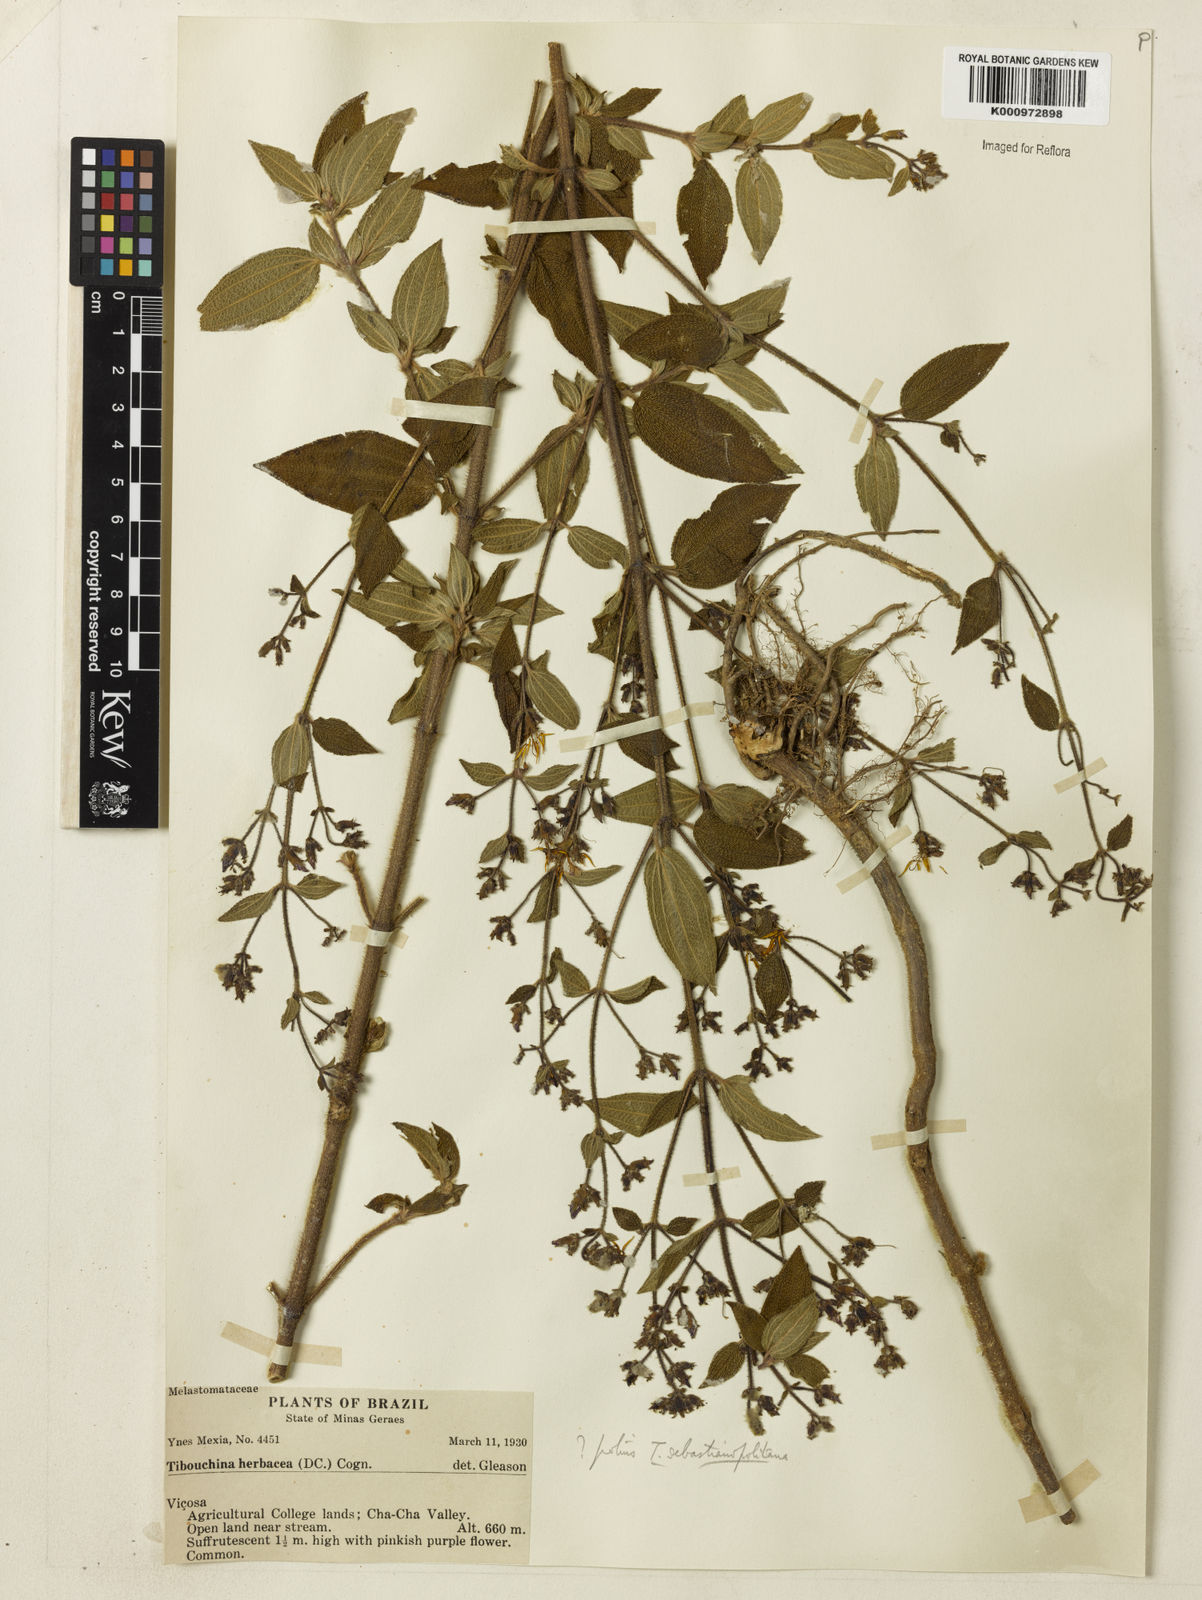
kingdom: Plantae
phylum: Tracheophyta
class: Magnoliopsida
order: Myrtales
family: Melastomataceae
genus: Chaetogastra
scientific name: Chaetogastra sebastianopolitana
